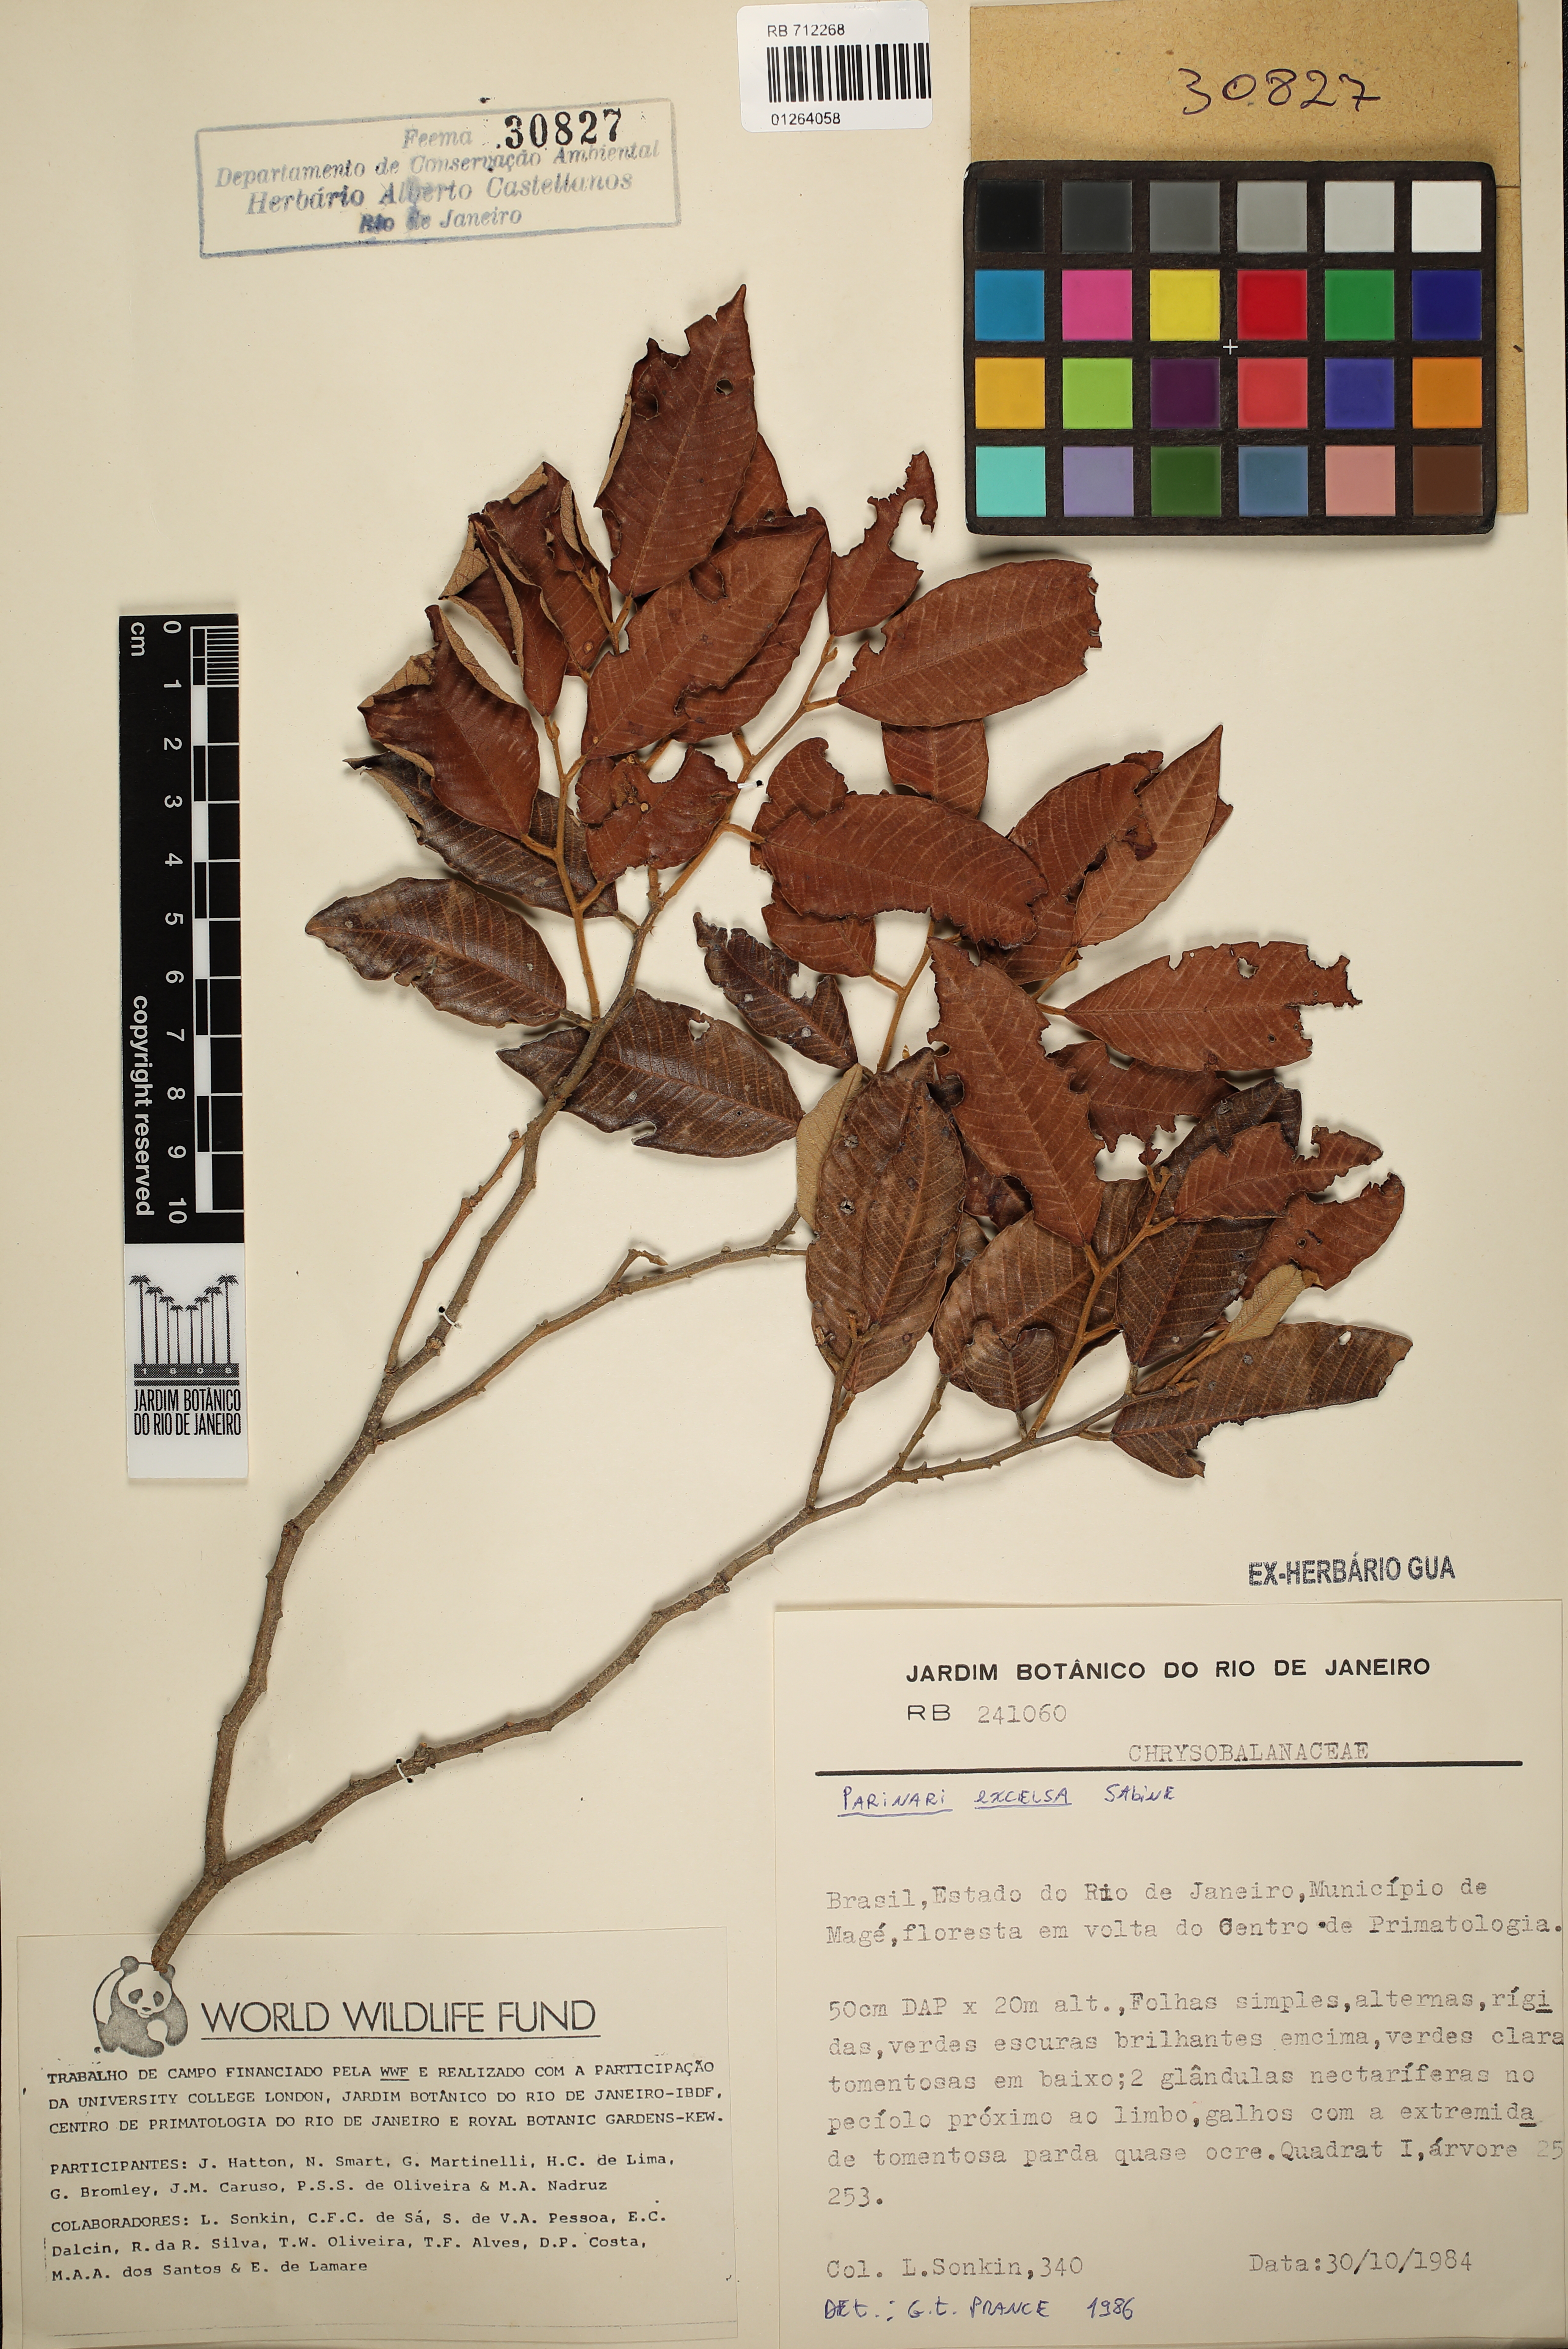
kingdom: Plantae
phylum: Tracheophyta
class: Magnoliopsida
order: Malpighiales
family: Chrysobalanaceae
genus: Parinari
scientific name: Parinari excelsa
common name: Guinea-plum
